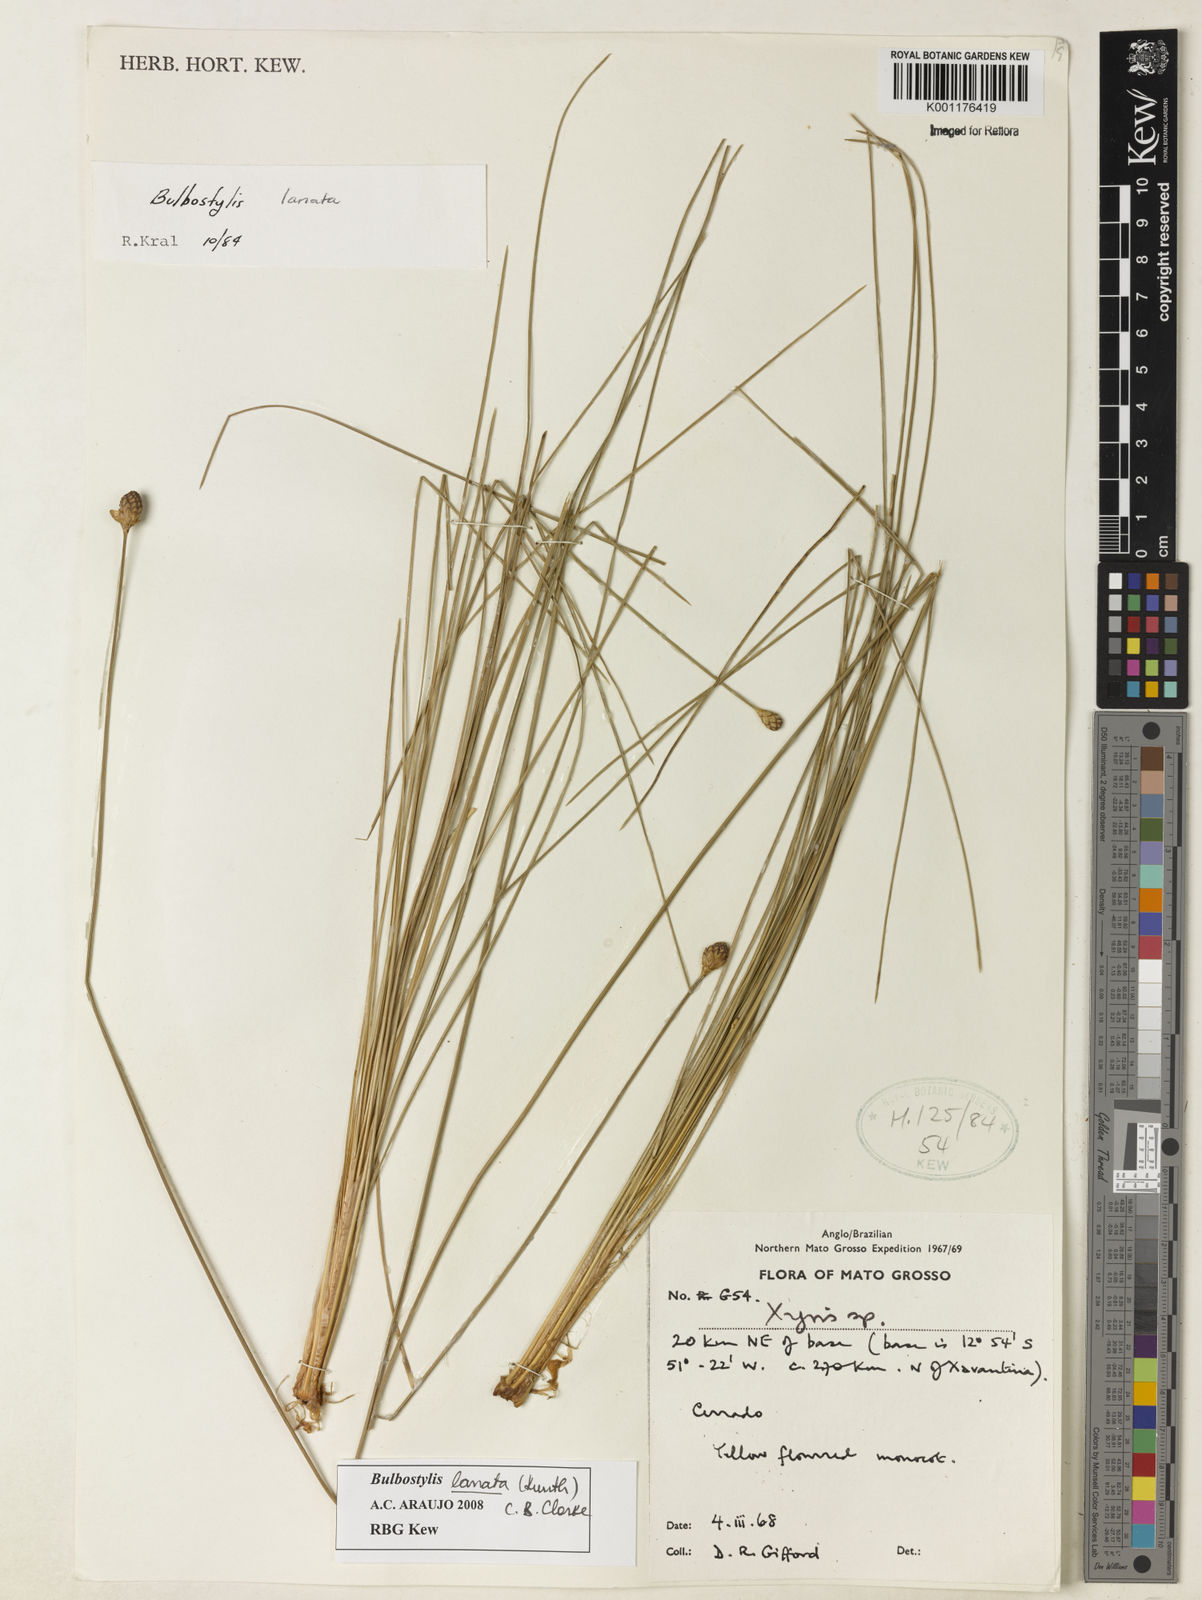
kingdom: Plantae
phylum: Tracheophyta
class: Liliopsida
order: Poales
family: Cyperaceae
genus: Bulbostylis
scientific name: Bulbostylis lanata
